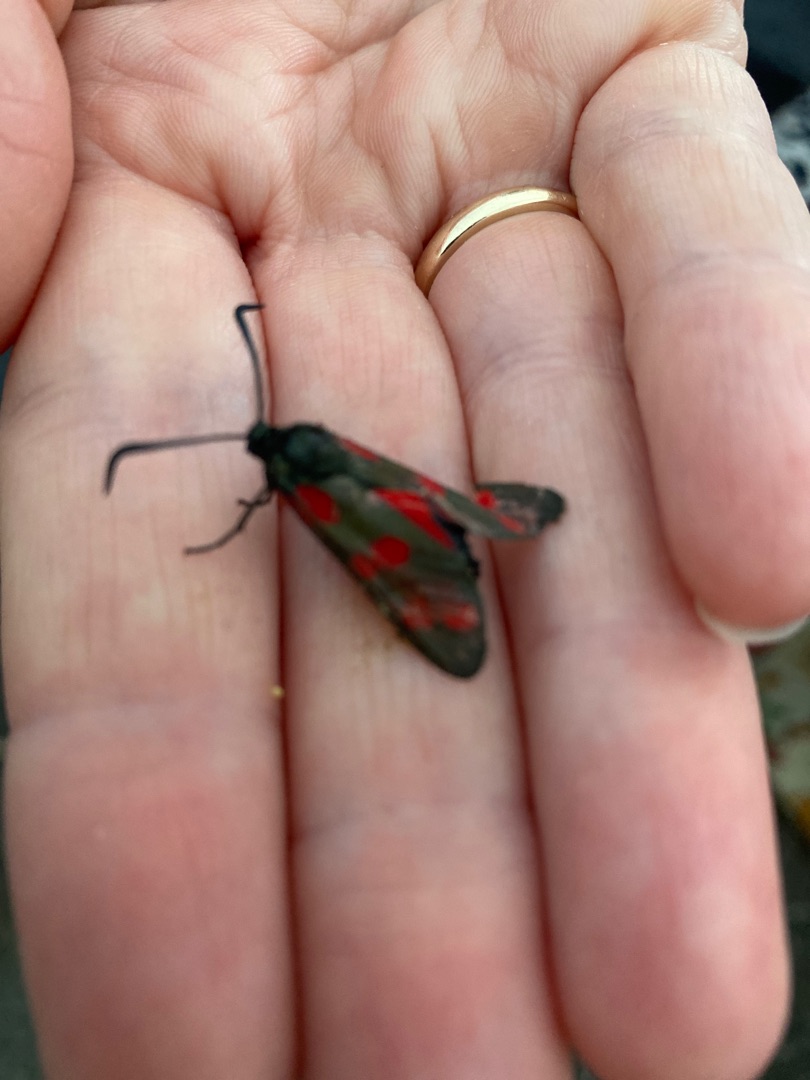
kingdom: Animalia
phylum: Arthropoda
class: Insecta
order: Lepidoptera
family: Zygaenidae
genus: Zygaena
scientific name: Zygaena filipendulae
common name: Seksplettet køllesværmer
